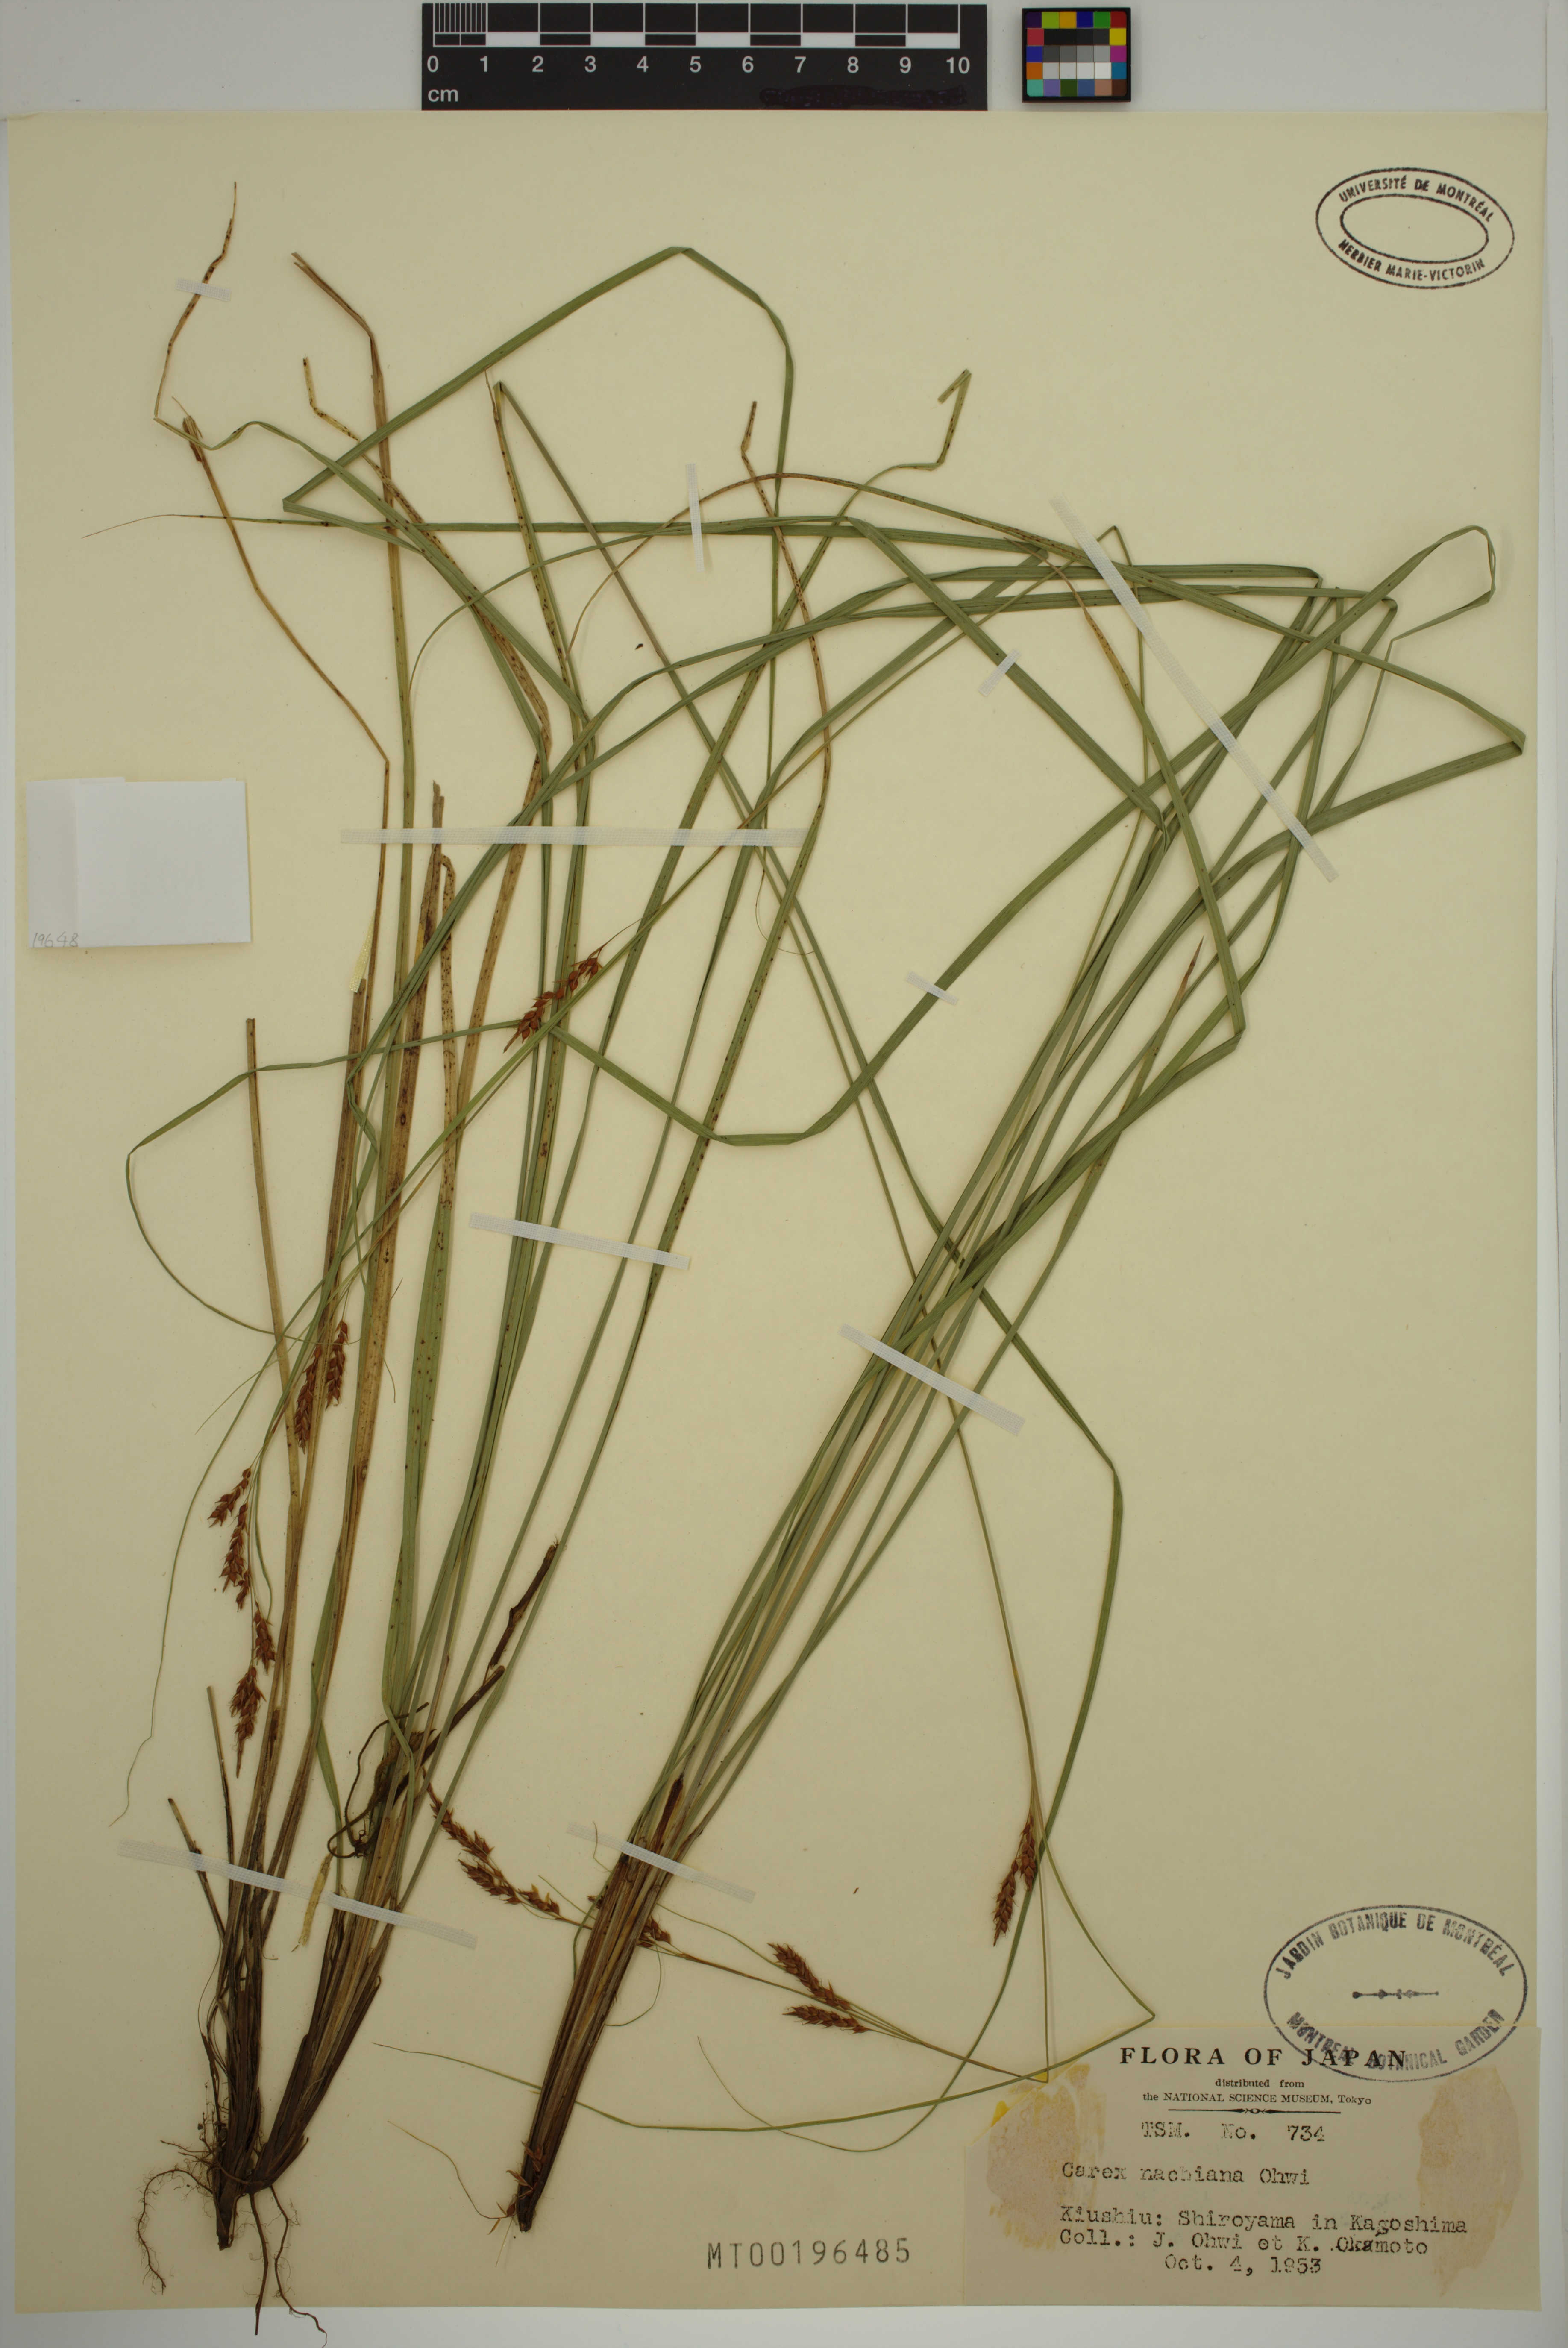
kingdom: Plantae
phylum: Tracheophyta
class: Liliopsida
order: Poales
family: Cyperaceae
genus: Carex
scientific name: Carex nachiana
